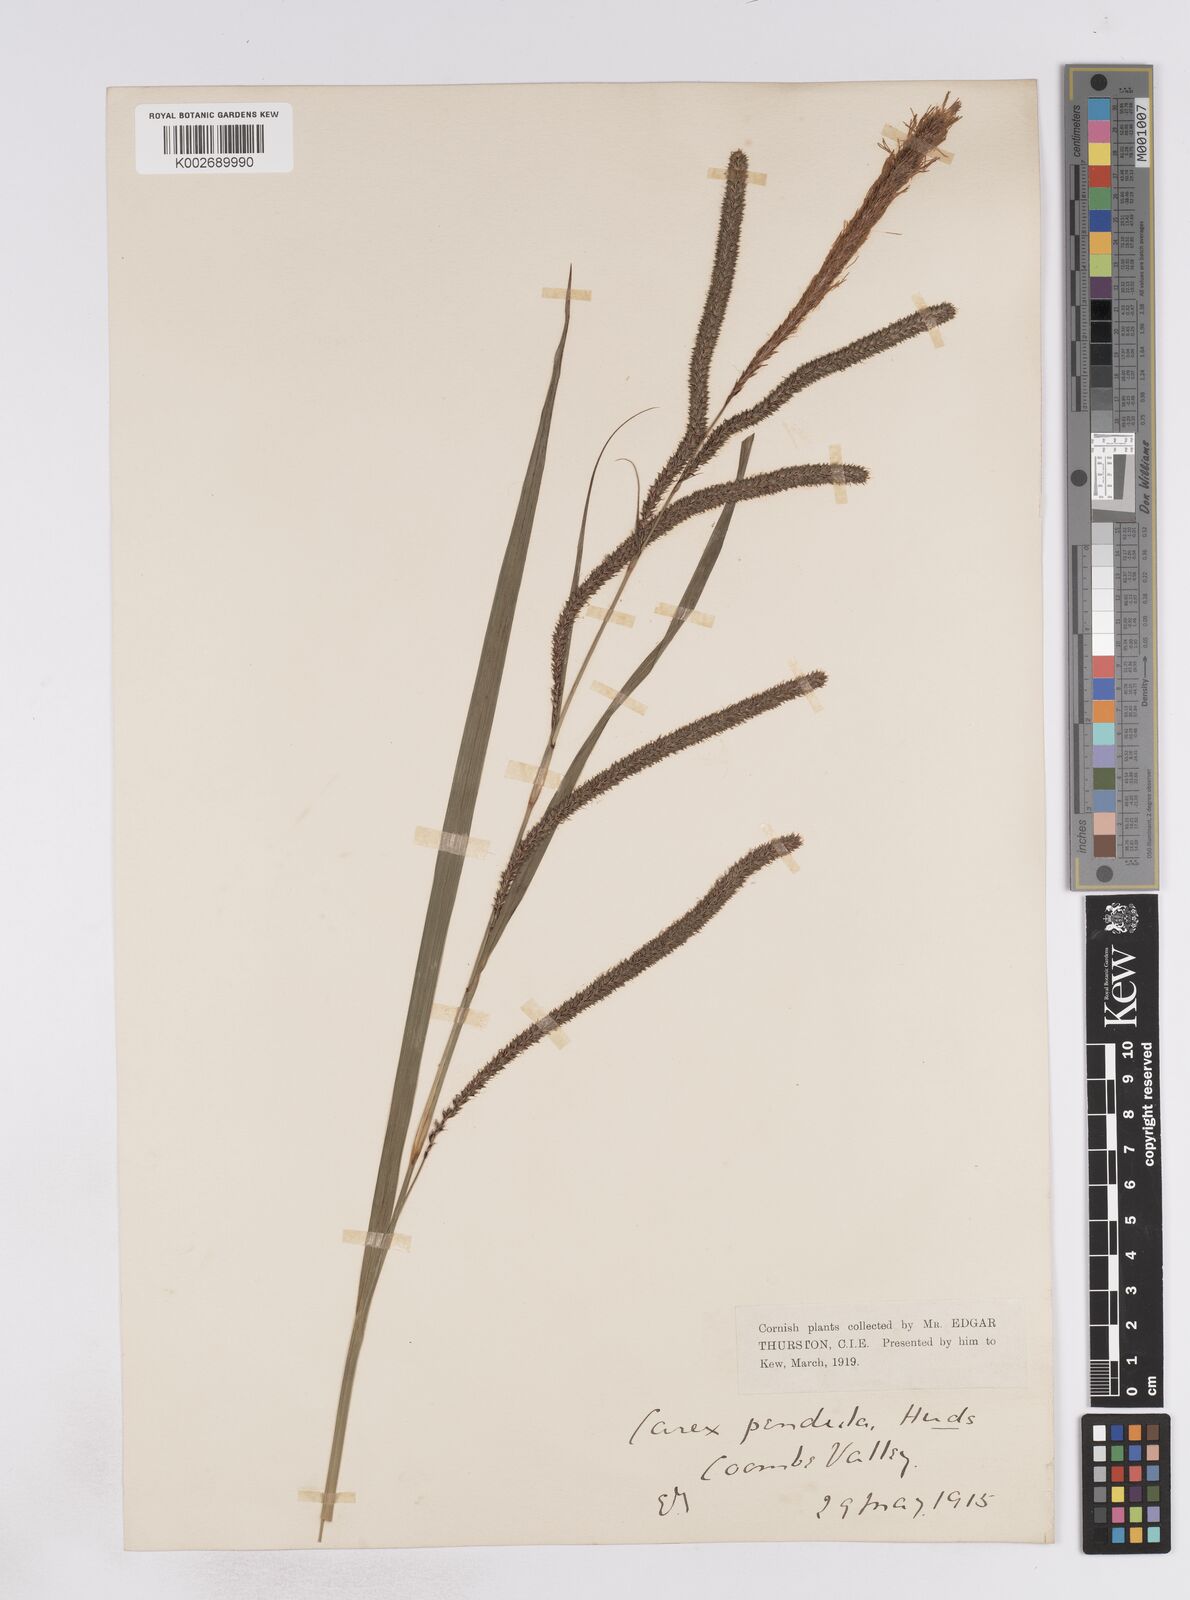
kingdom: Plantae
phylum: Tracheophyta
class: Liliopsida
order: Poales
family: Cyperaceae
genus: Carex
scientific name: Carex pendula
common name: Pendulous sedge
